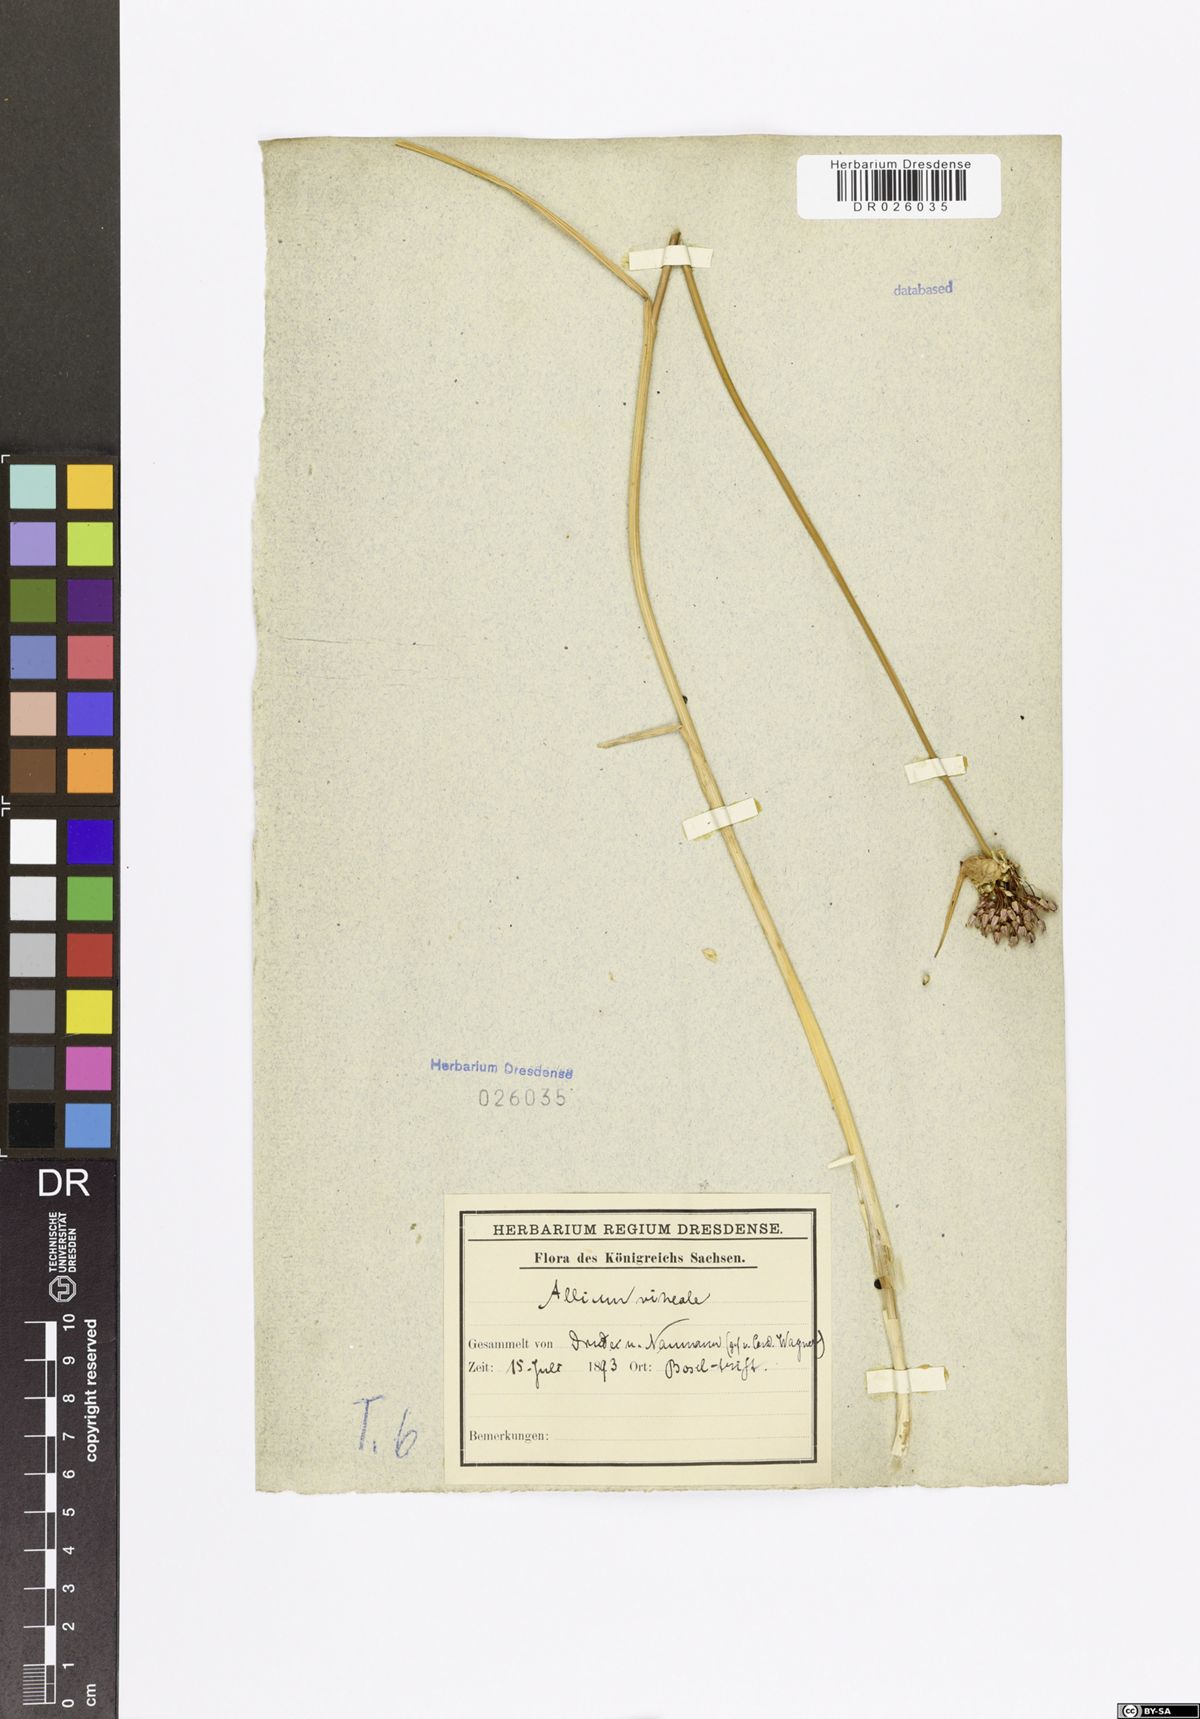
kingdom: Plantae
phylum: Tracheophyta
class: Liliopsida
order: Asparagales
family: Amaryllidaceae
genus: Allium
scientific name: Allium vineale
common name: Crow garlic
